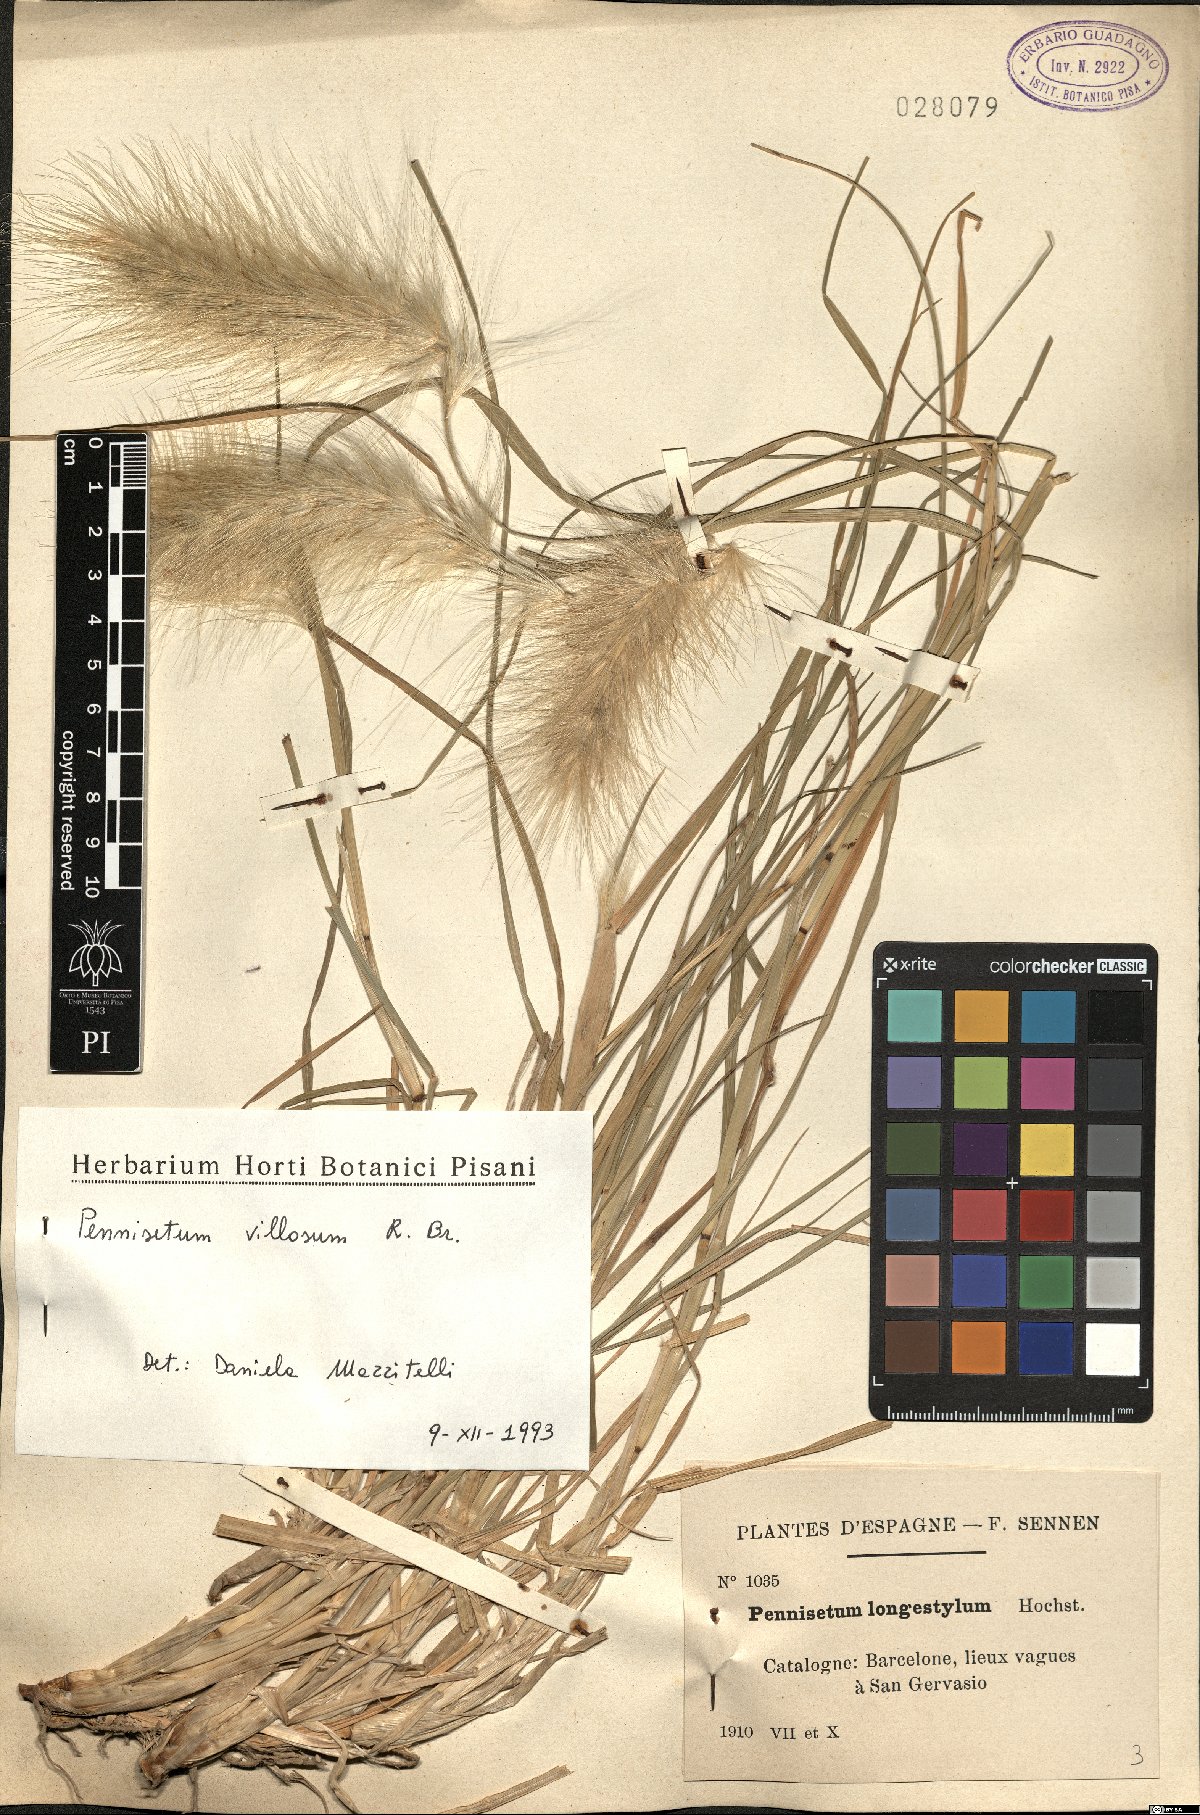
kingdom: Plantae
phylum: Tracheophyta
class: Liliopsida
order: Poales
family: Poaceae
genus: Cenchrus
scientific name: Cenchrus longisetus
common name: Feathertop
